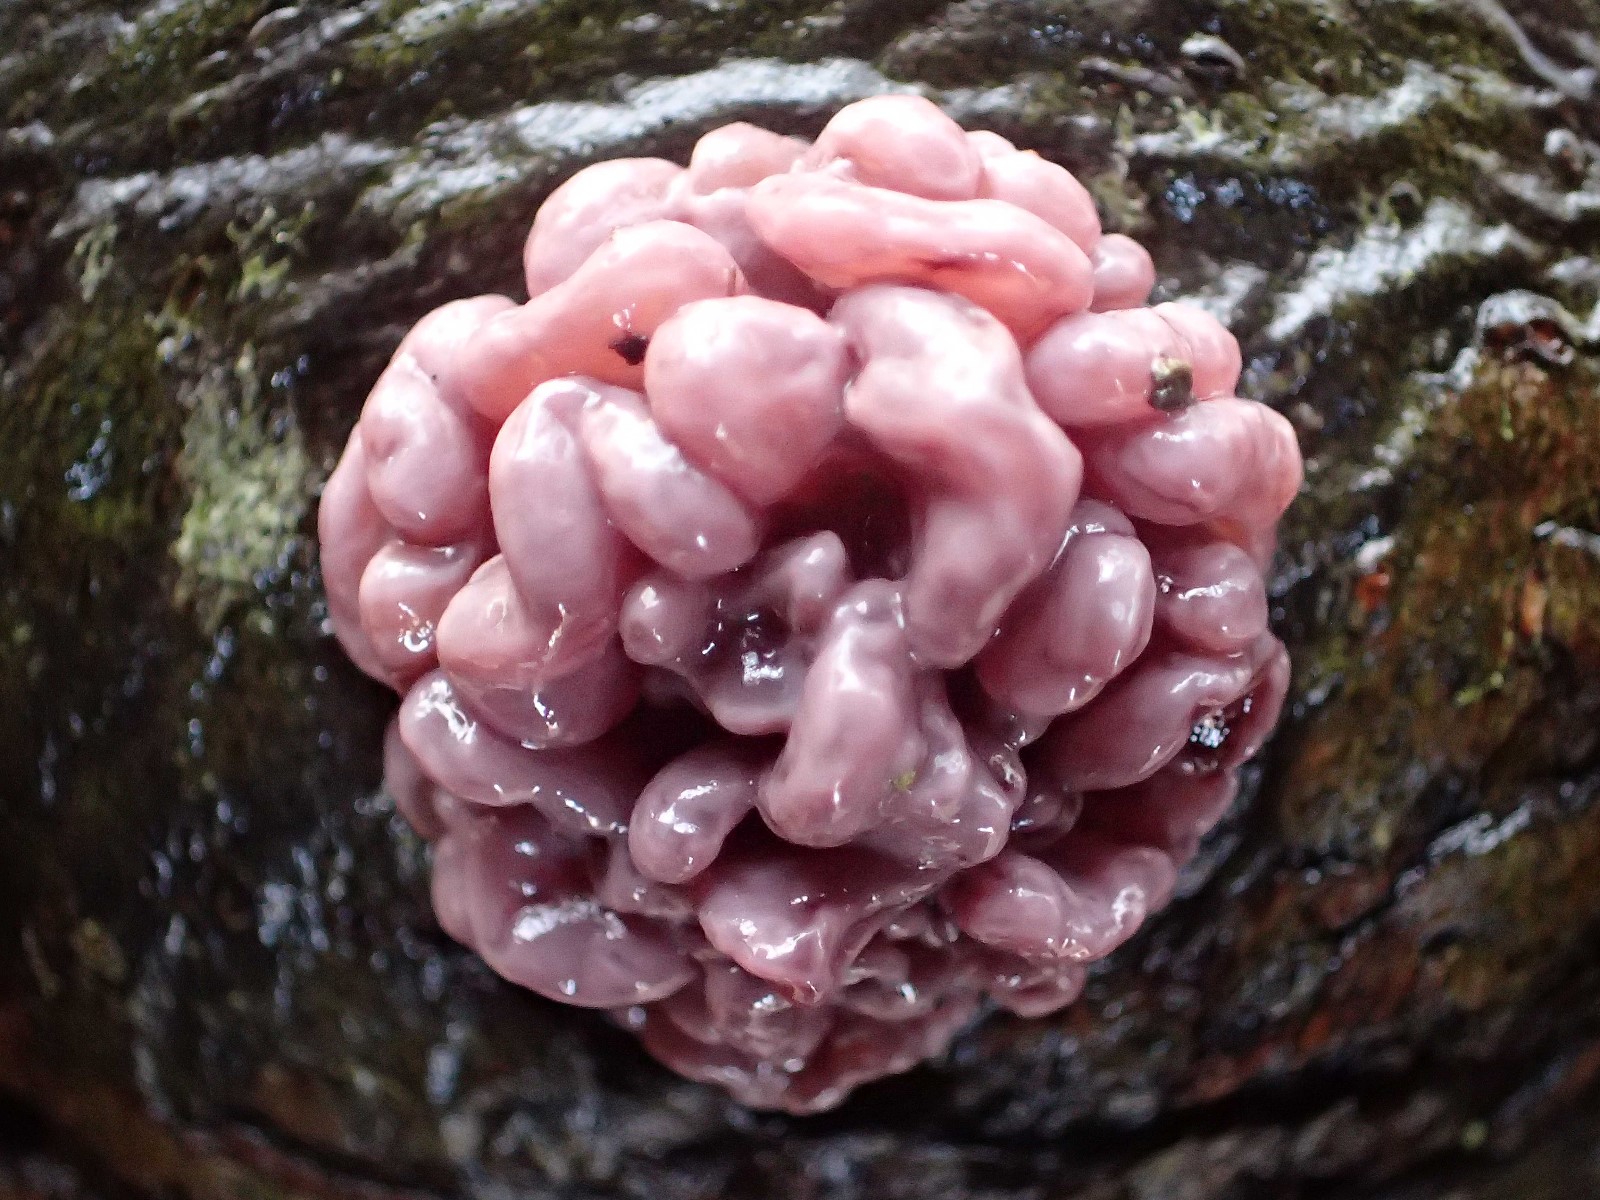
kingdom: Fungi
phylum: Ascomycota
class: Leotiomycetes
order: Helotiales
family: Gelatinodiscaceae
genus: Ascocoryne
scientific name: Ascocoryne sarcoides
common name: rødlilla sejskive
